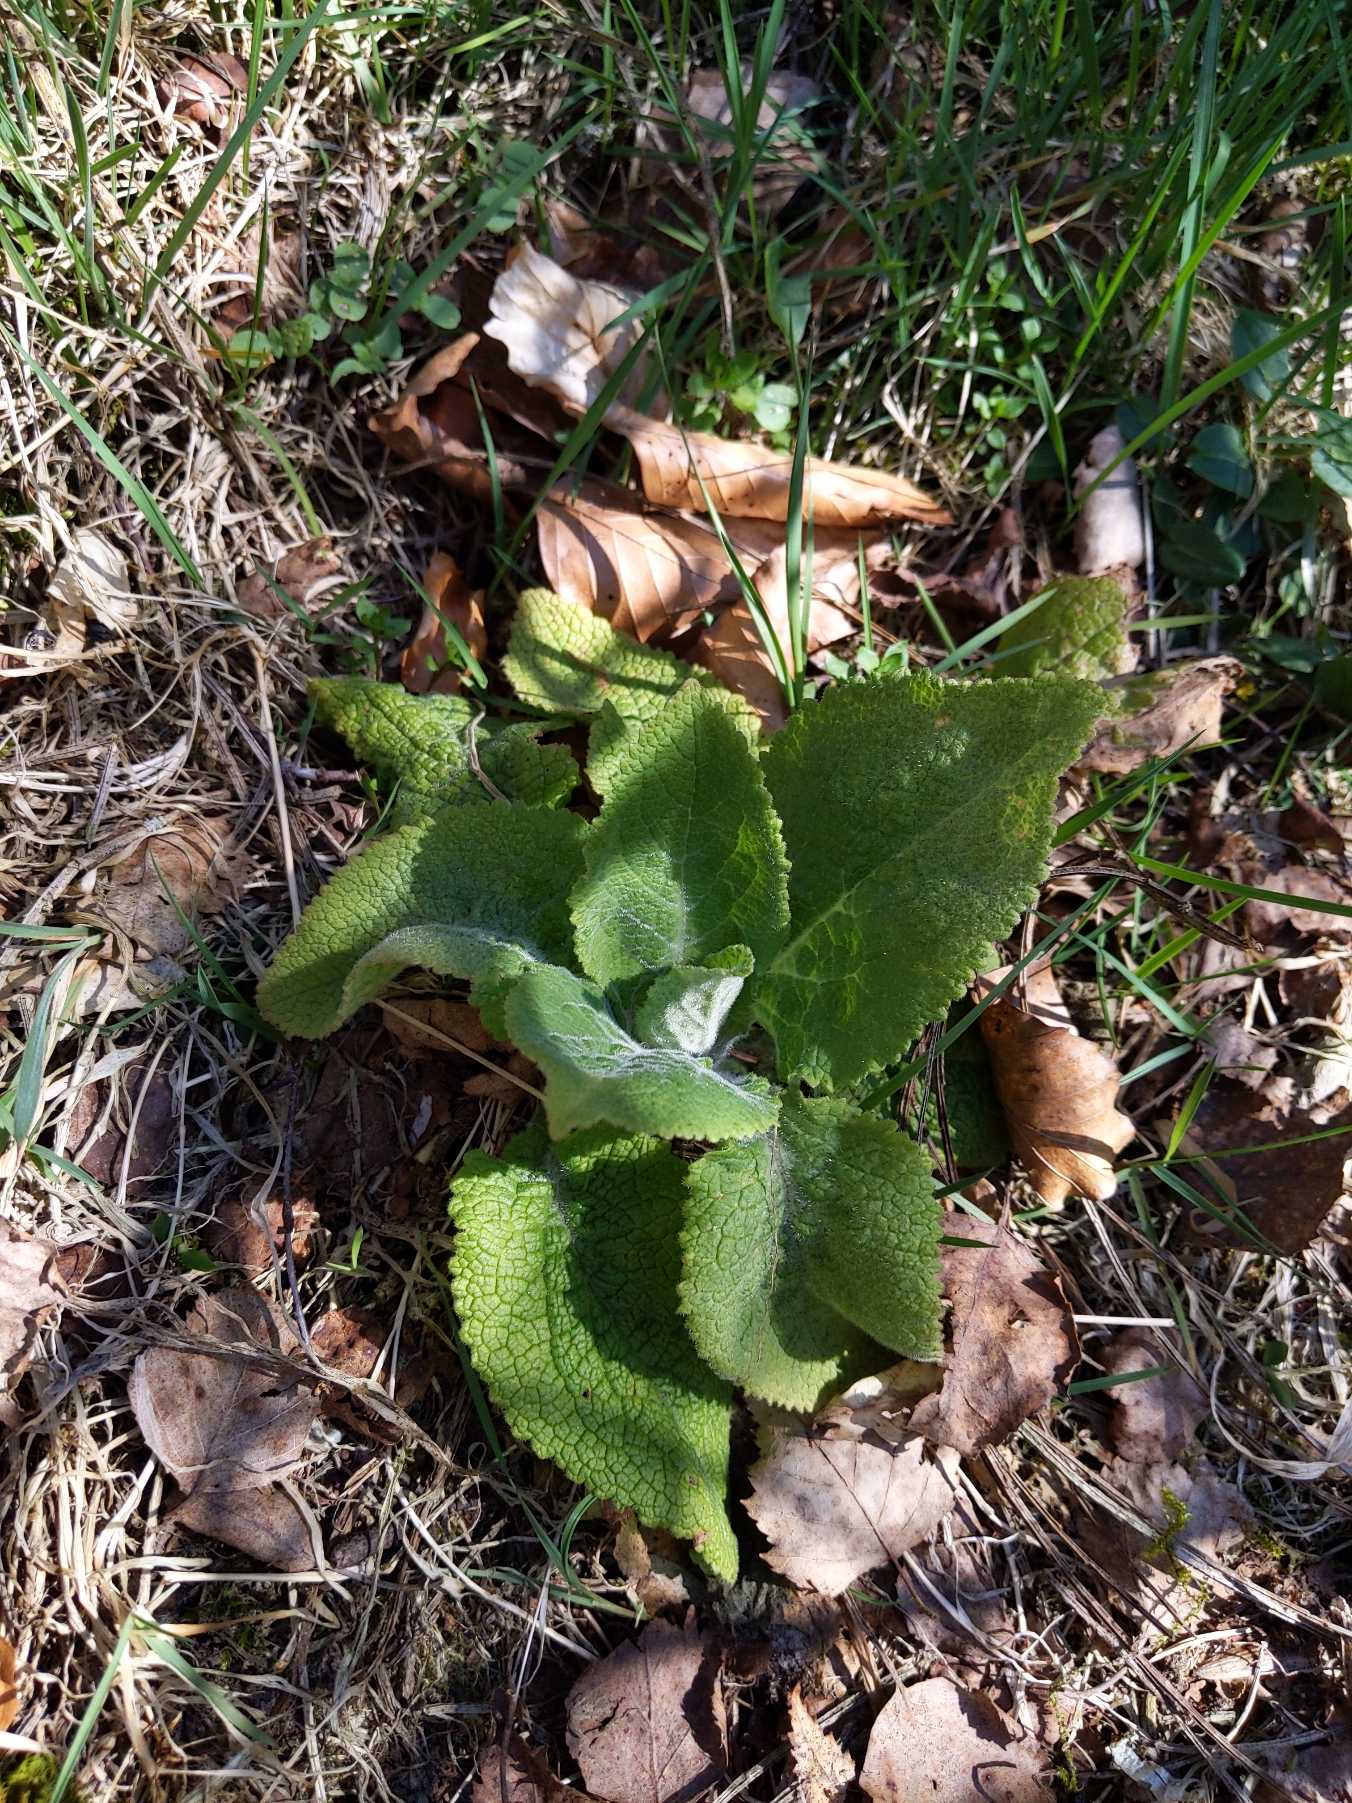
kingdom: Plantae
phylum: Tracheophyta
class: Magnoliopsida
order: Lamiales
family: Plantaginaceae
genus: Digitalis
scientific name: Digitalis purpurea
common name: Almindelig fingerbøl
